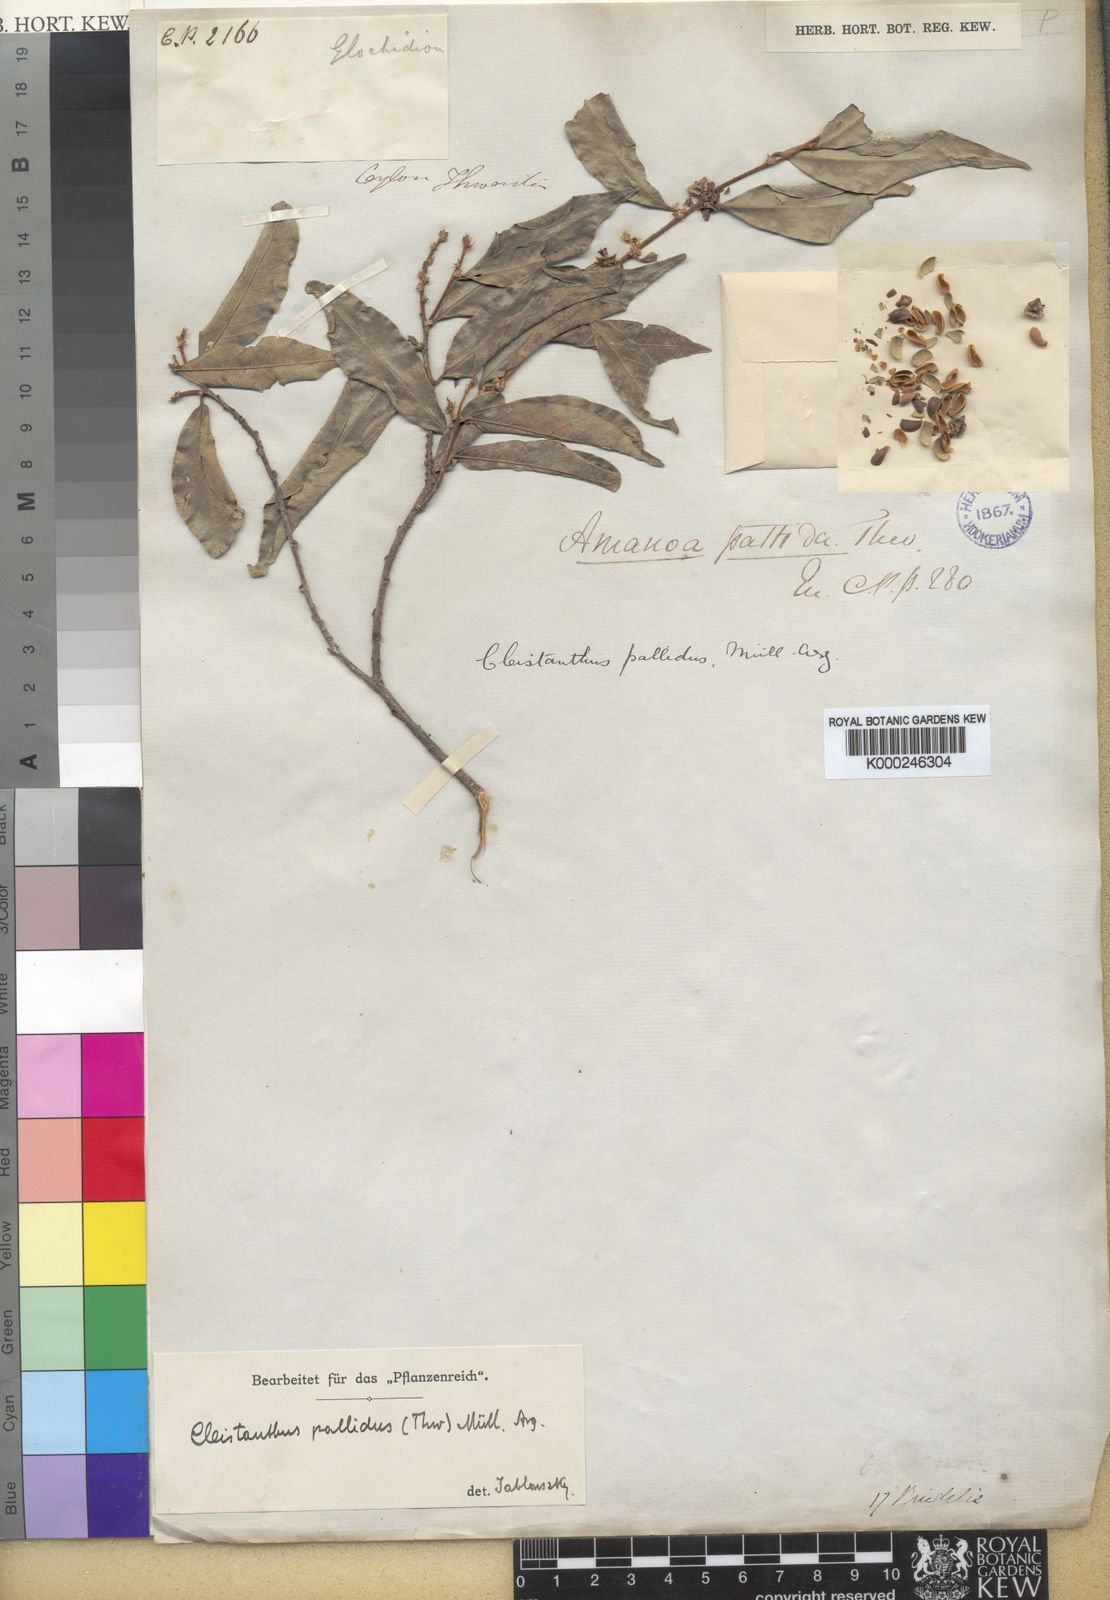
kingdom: Plantae
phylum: Tracheophyta
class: Magnoliopsida
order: Malpighiales
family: Phyllanthaceae
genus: Cleistanthus
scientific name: Cleistanthus
